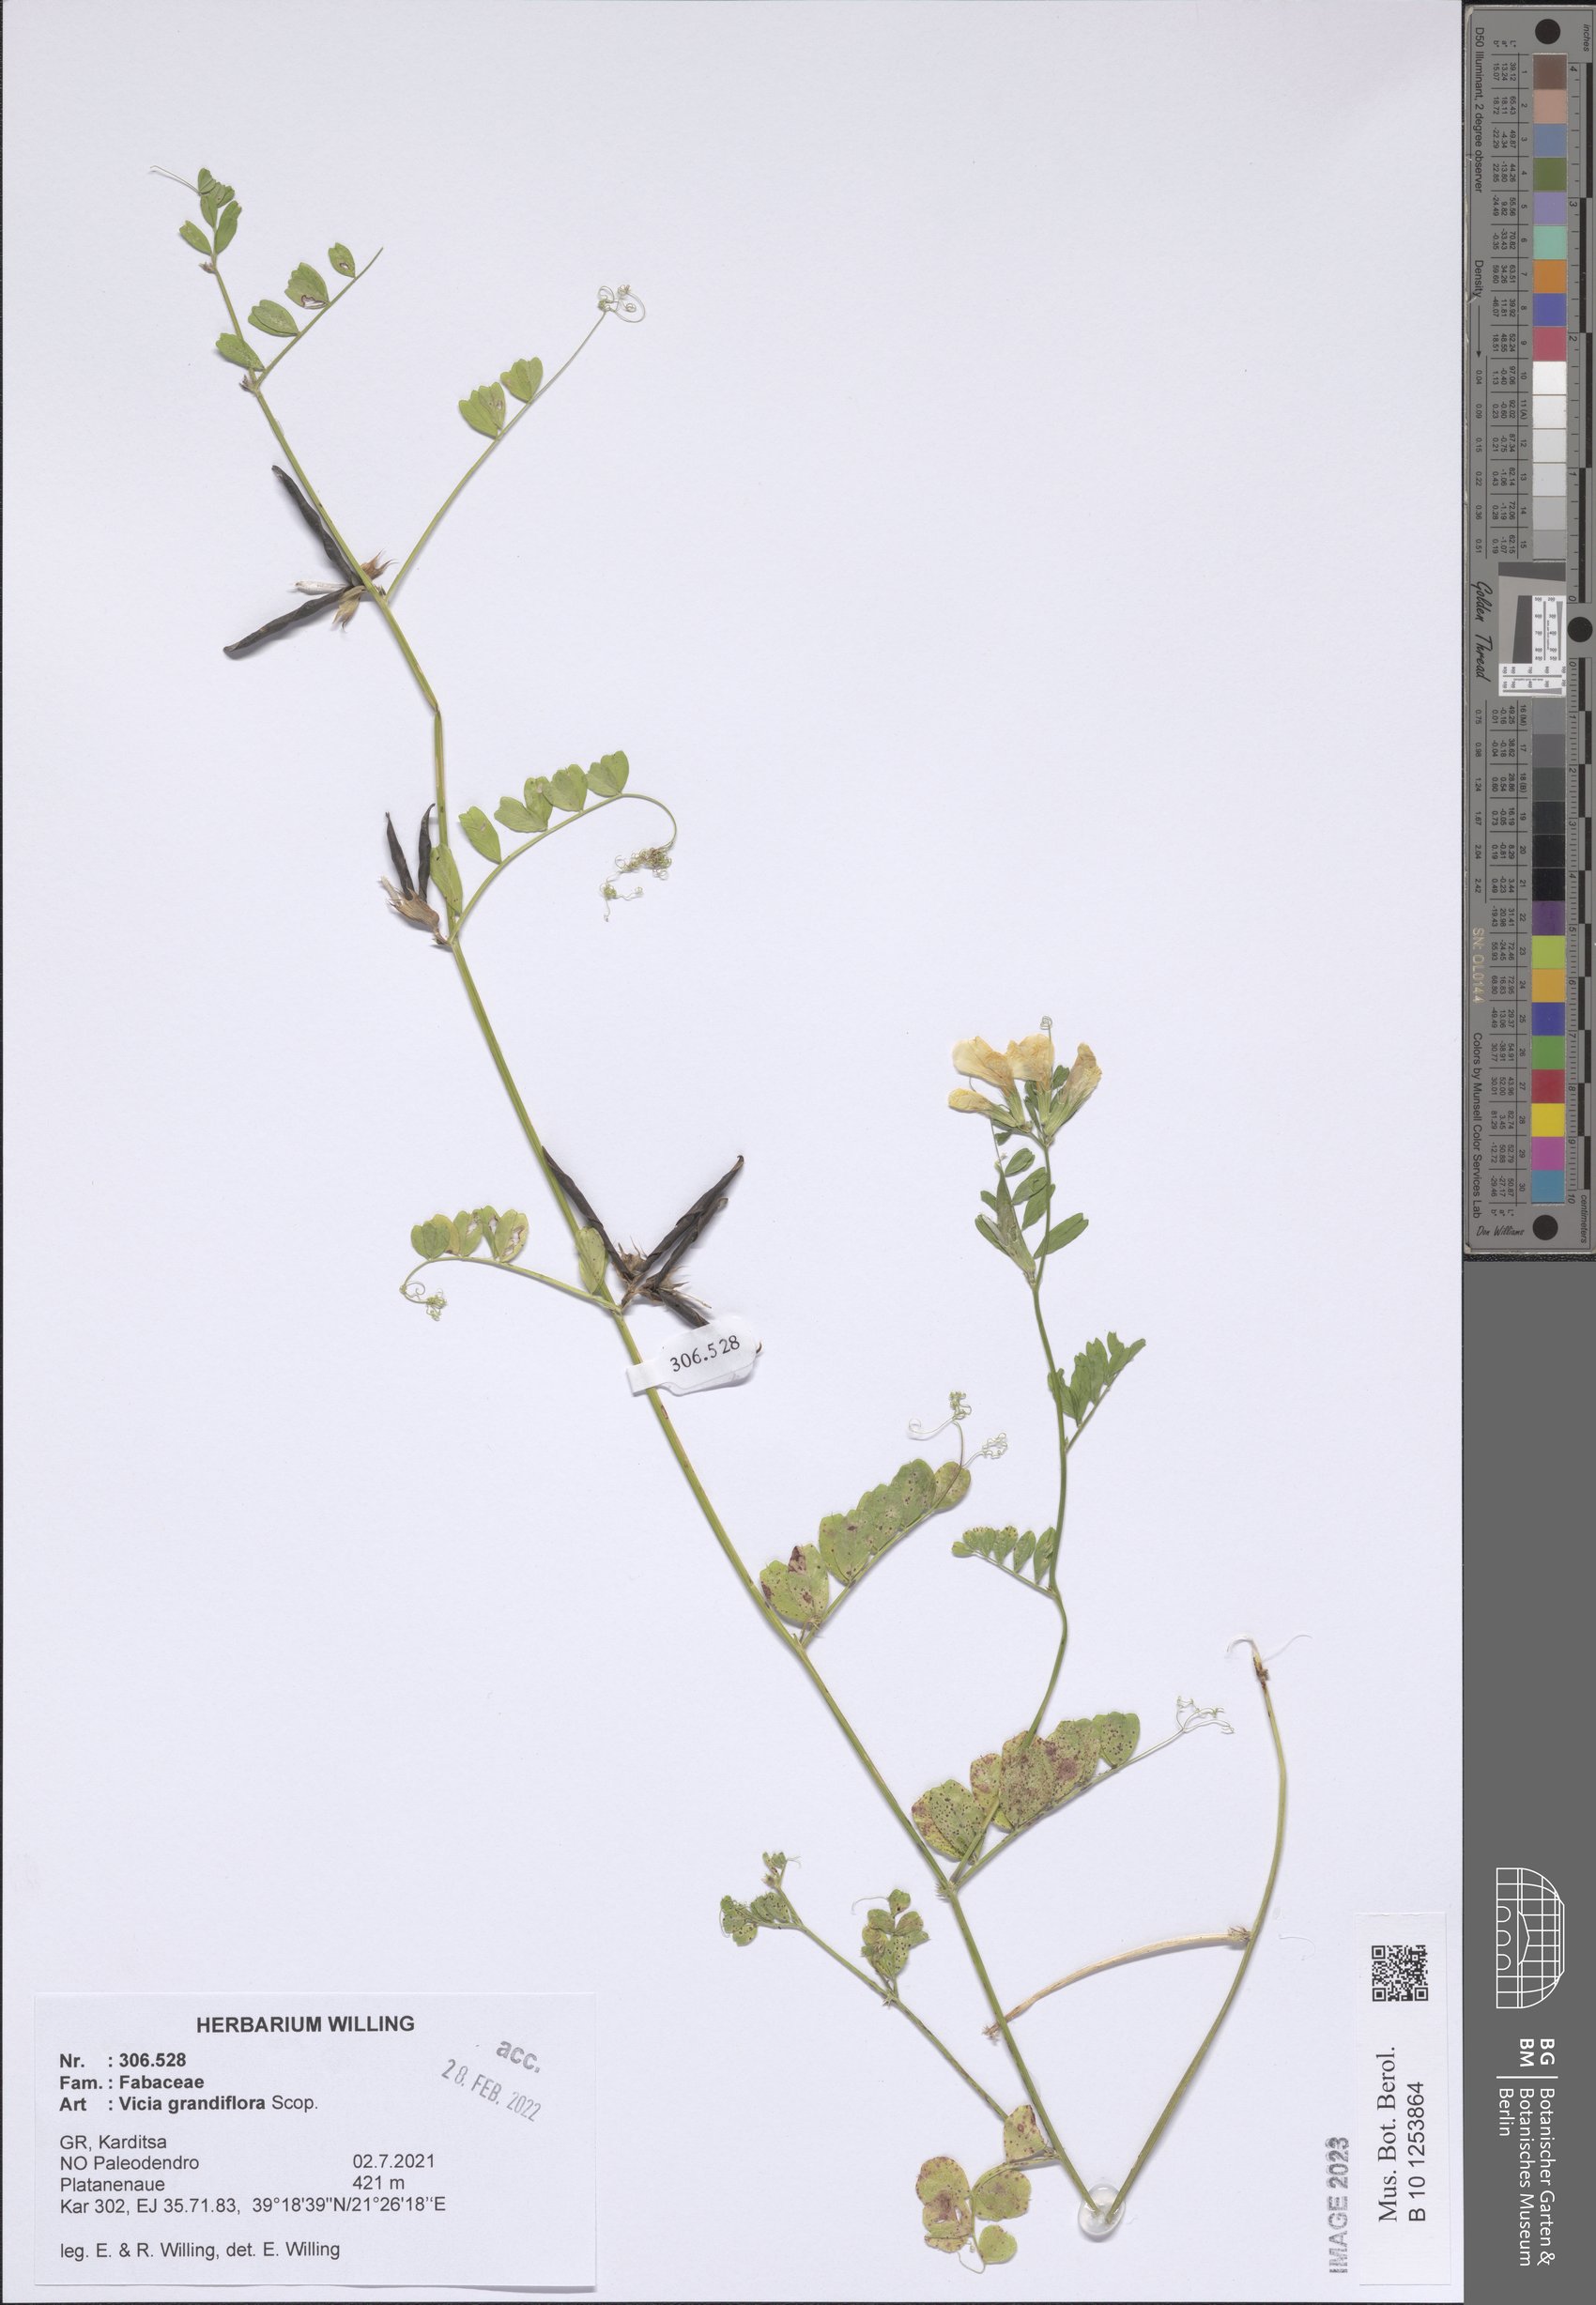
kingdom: Plantae
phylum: Tracheophyta
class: Magnoliopsida
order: Fabales
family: Fabaceae
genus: Vicia
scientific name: Vicia grandiflora
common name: Large yellow vetch
